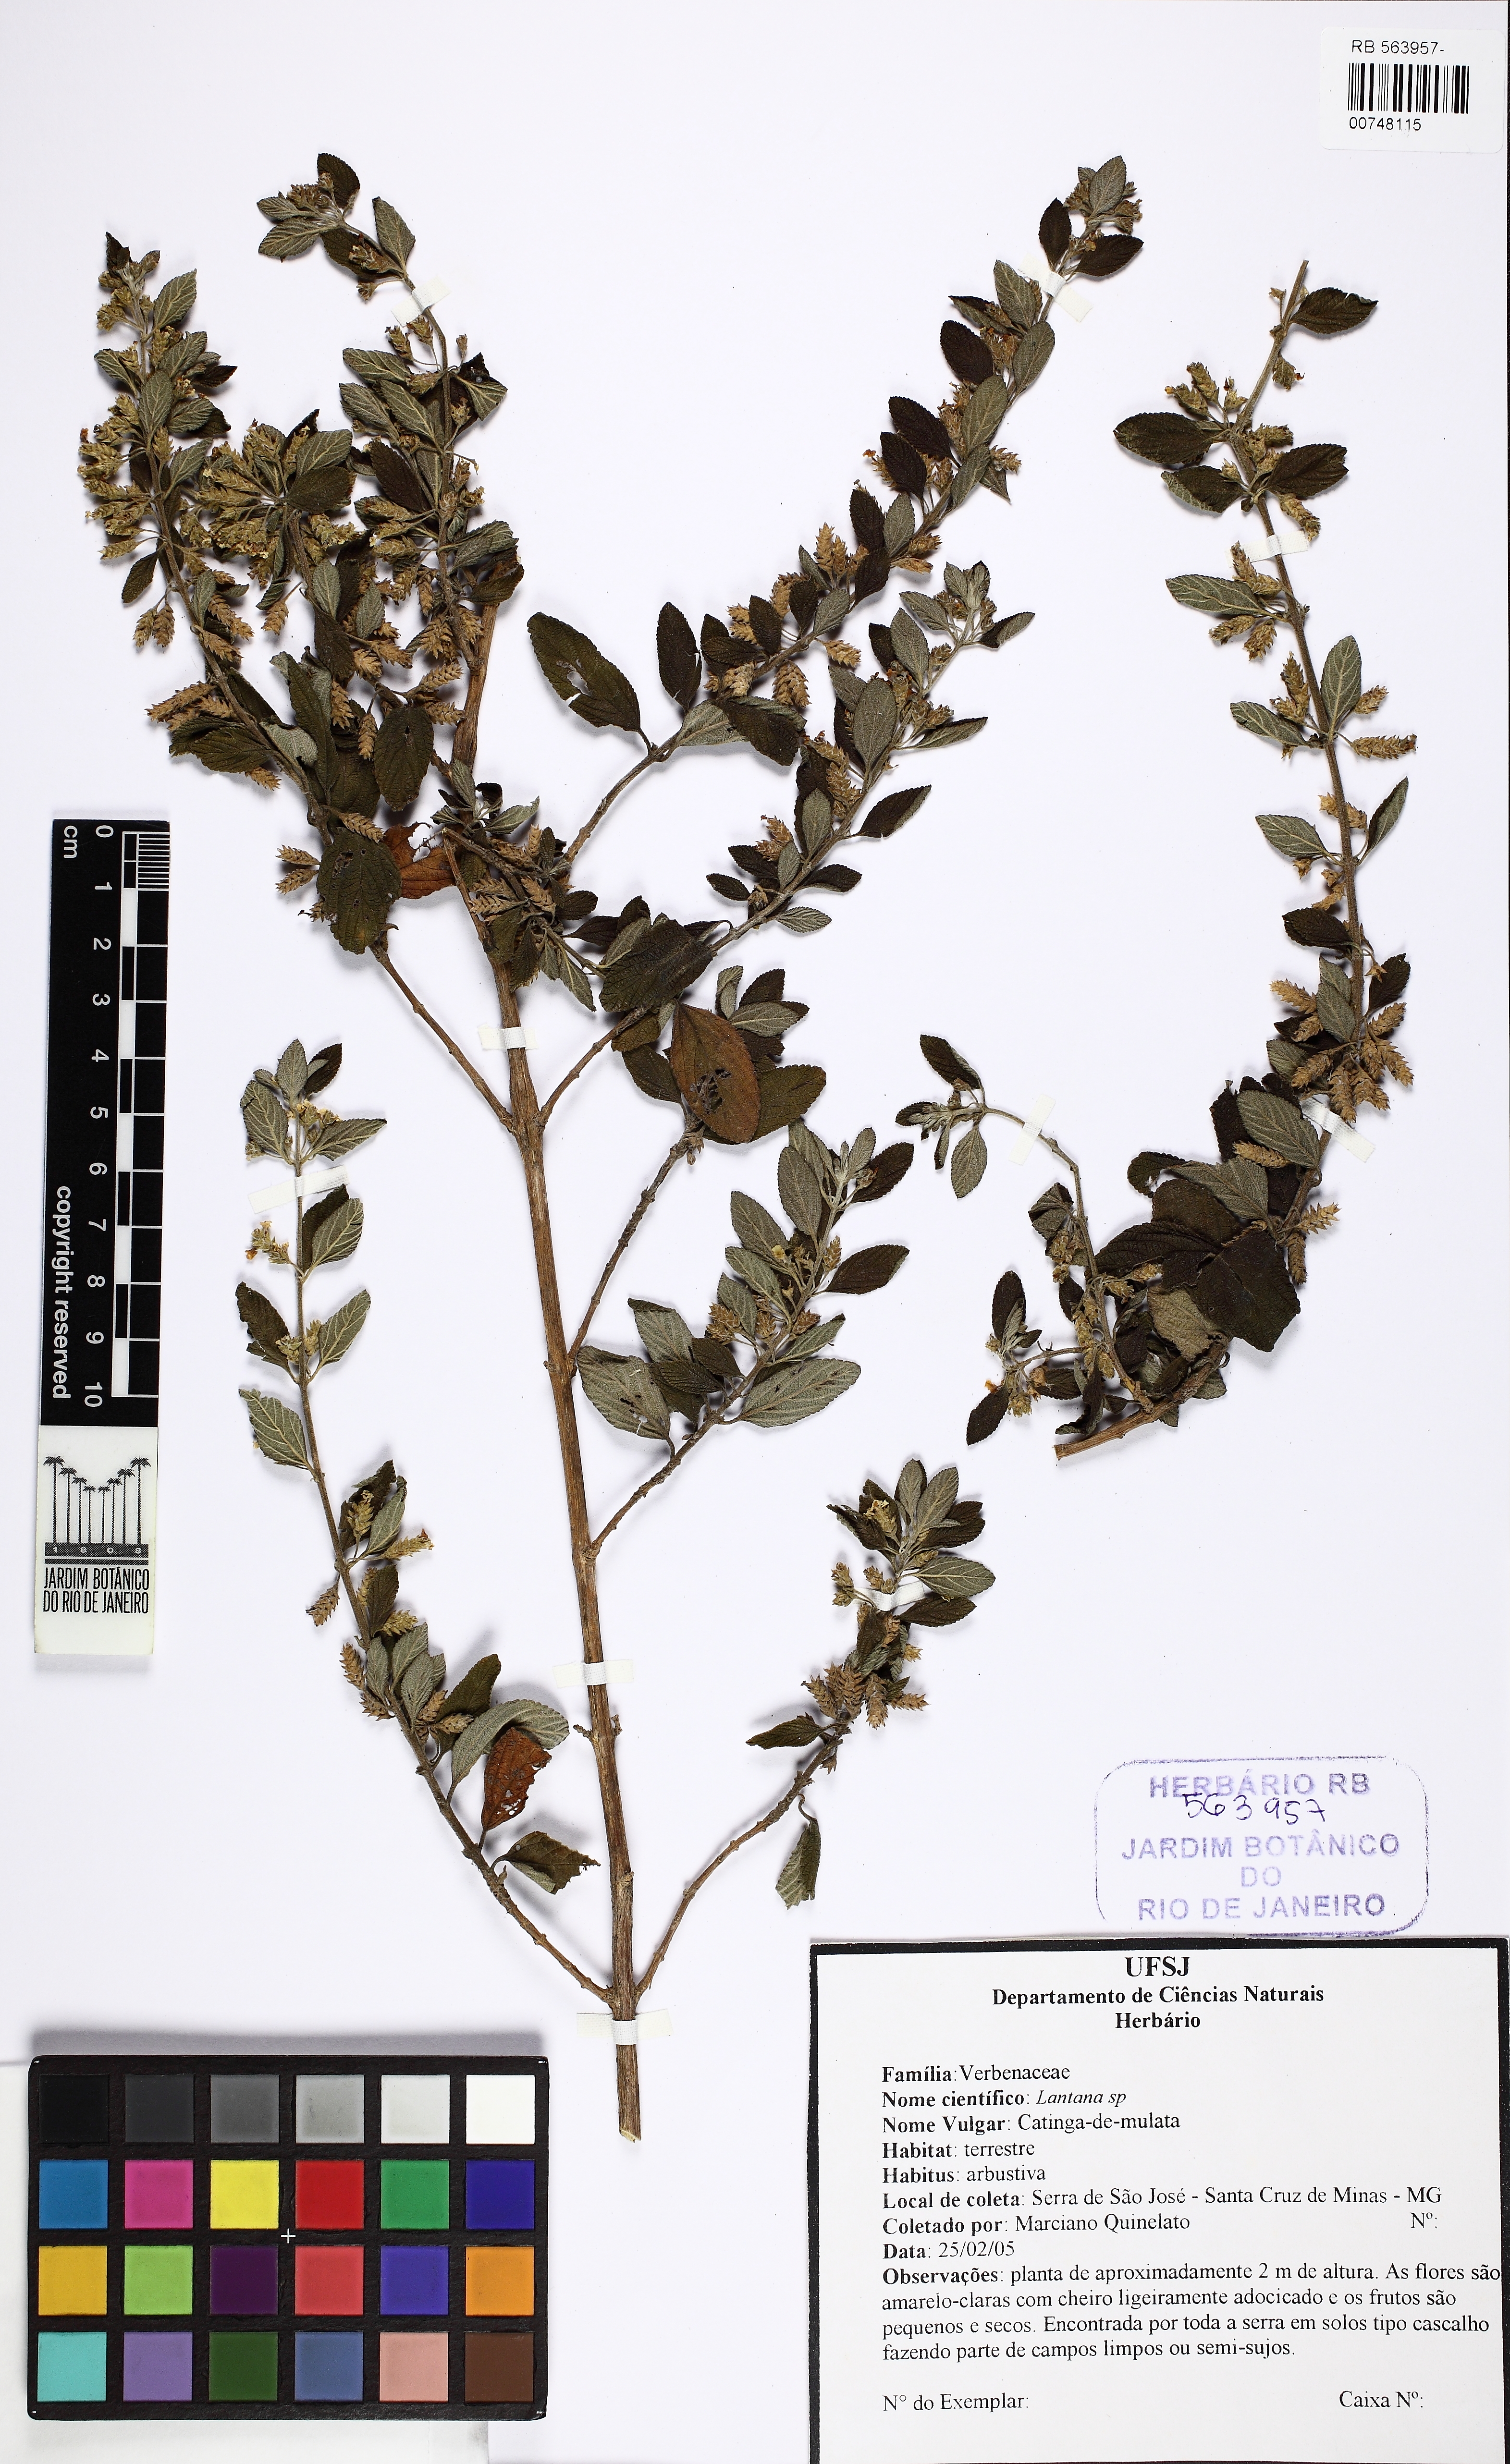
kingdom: Plantae
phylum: Tracheophyta
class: Magnoliopsida
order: Lamiales
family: Verbenaceae
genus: Lantana
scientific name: Lantana
